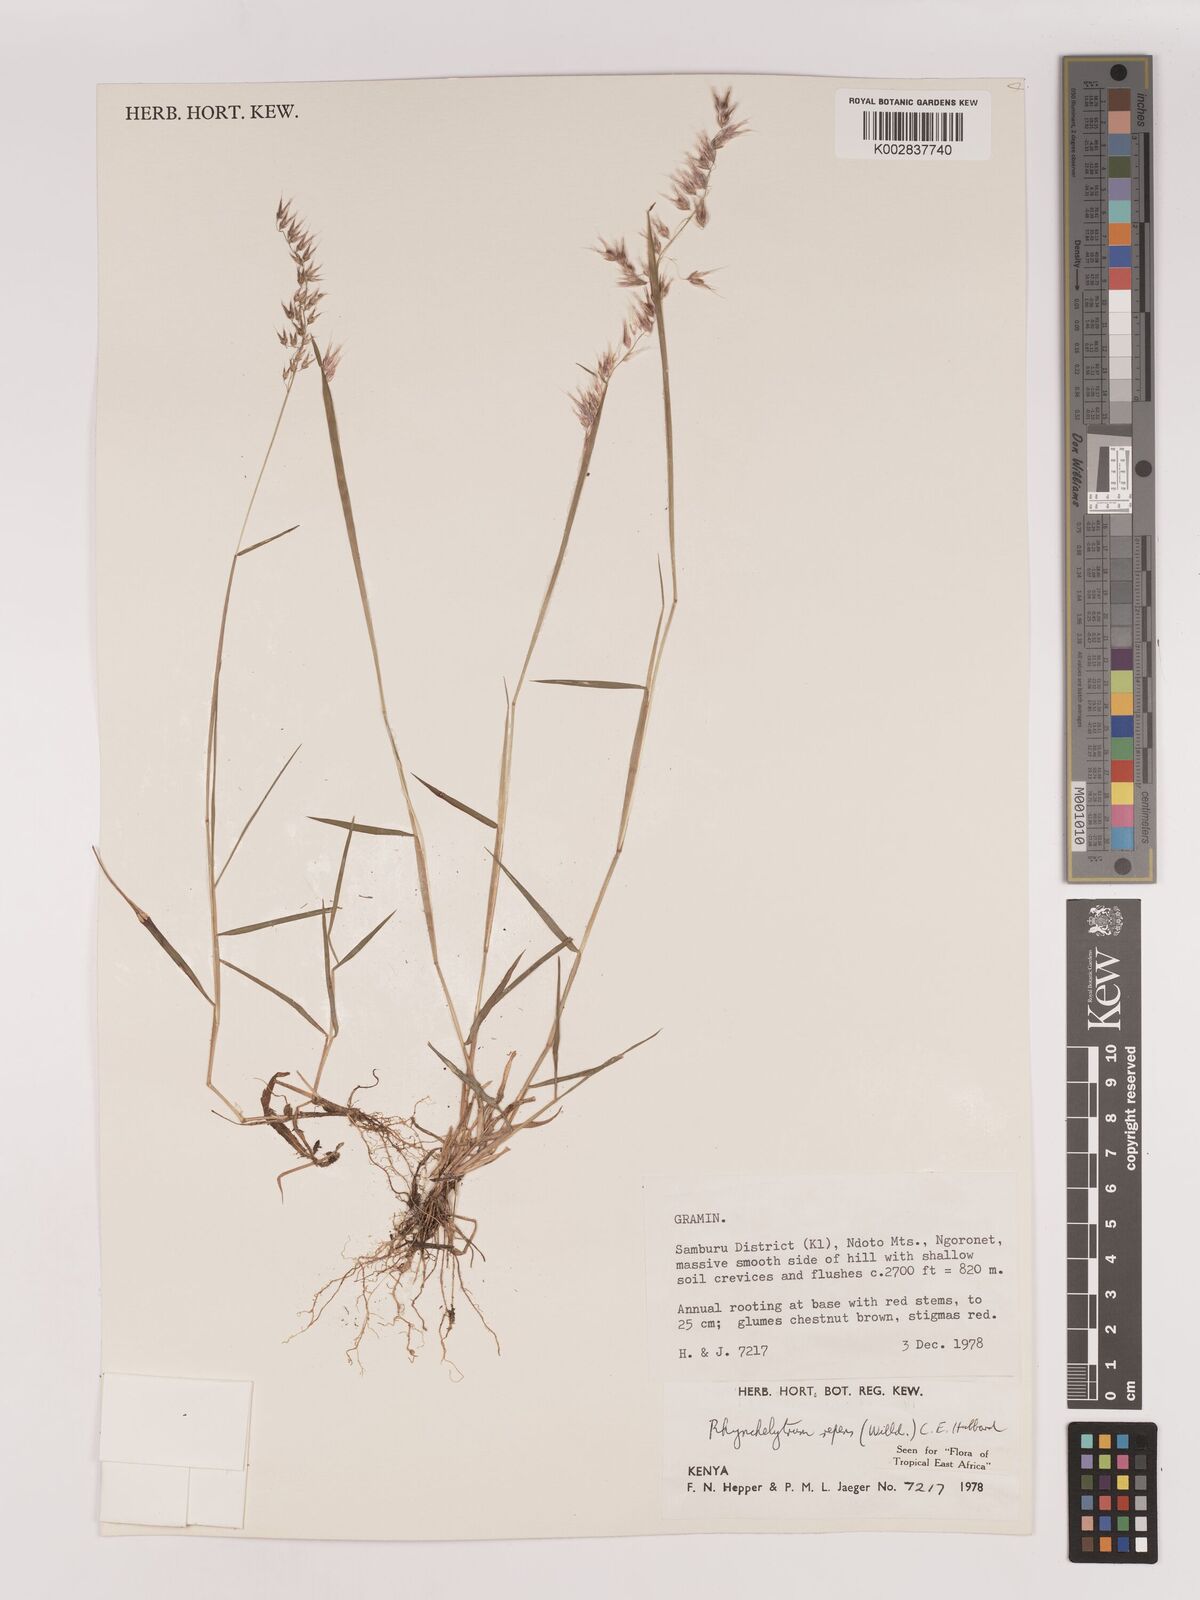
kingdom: Plantae
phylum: Tracheophyta
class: Liliopsida
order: Poales
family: Poaceae
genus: Melinis
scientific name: Melinis repens
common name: Rose natal grass
